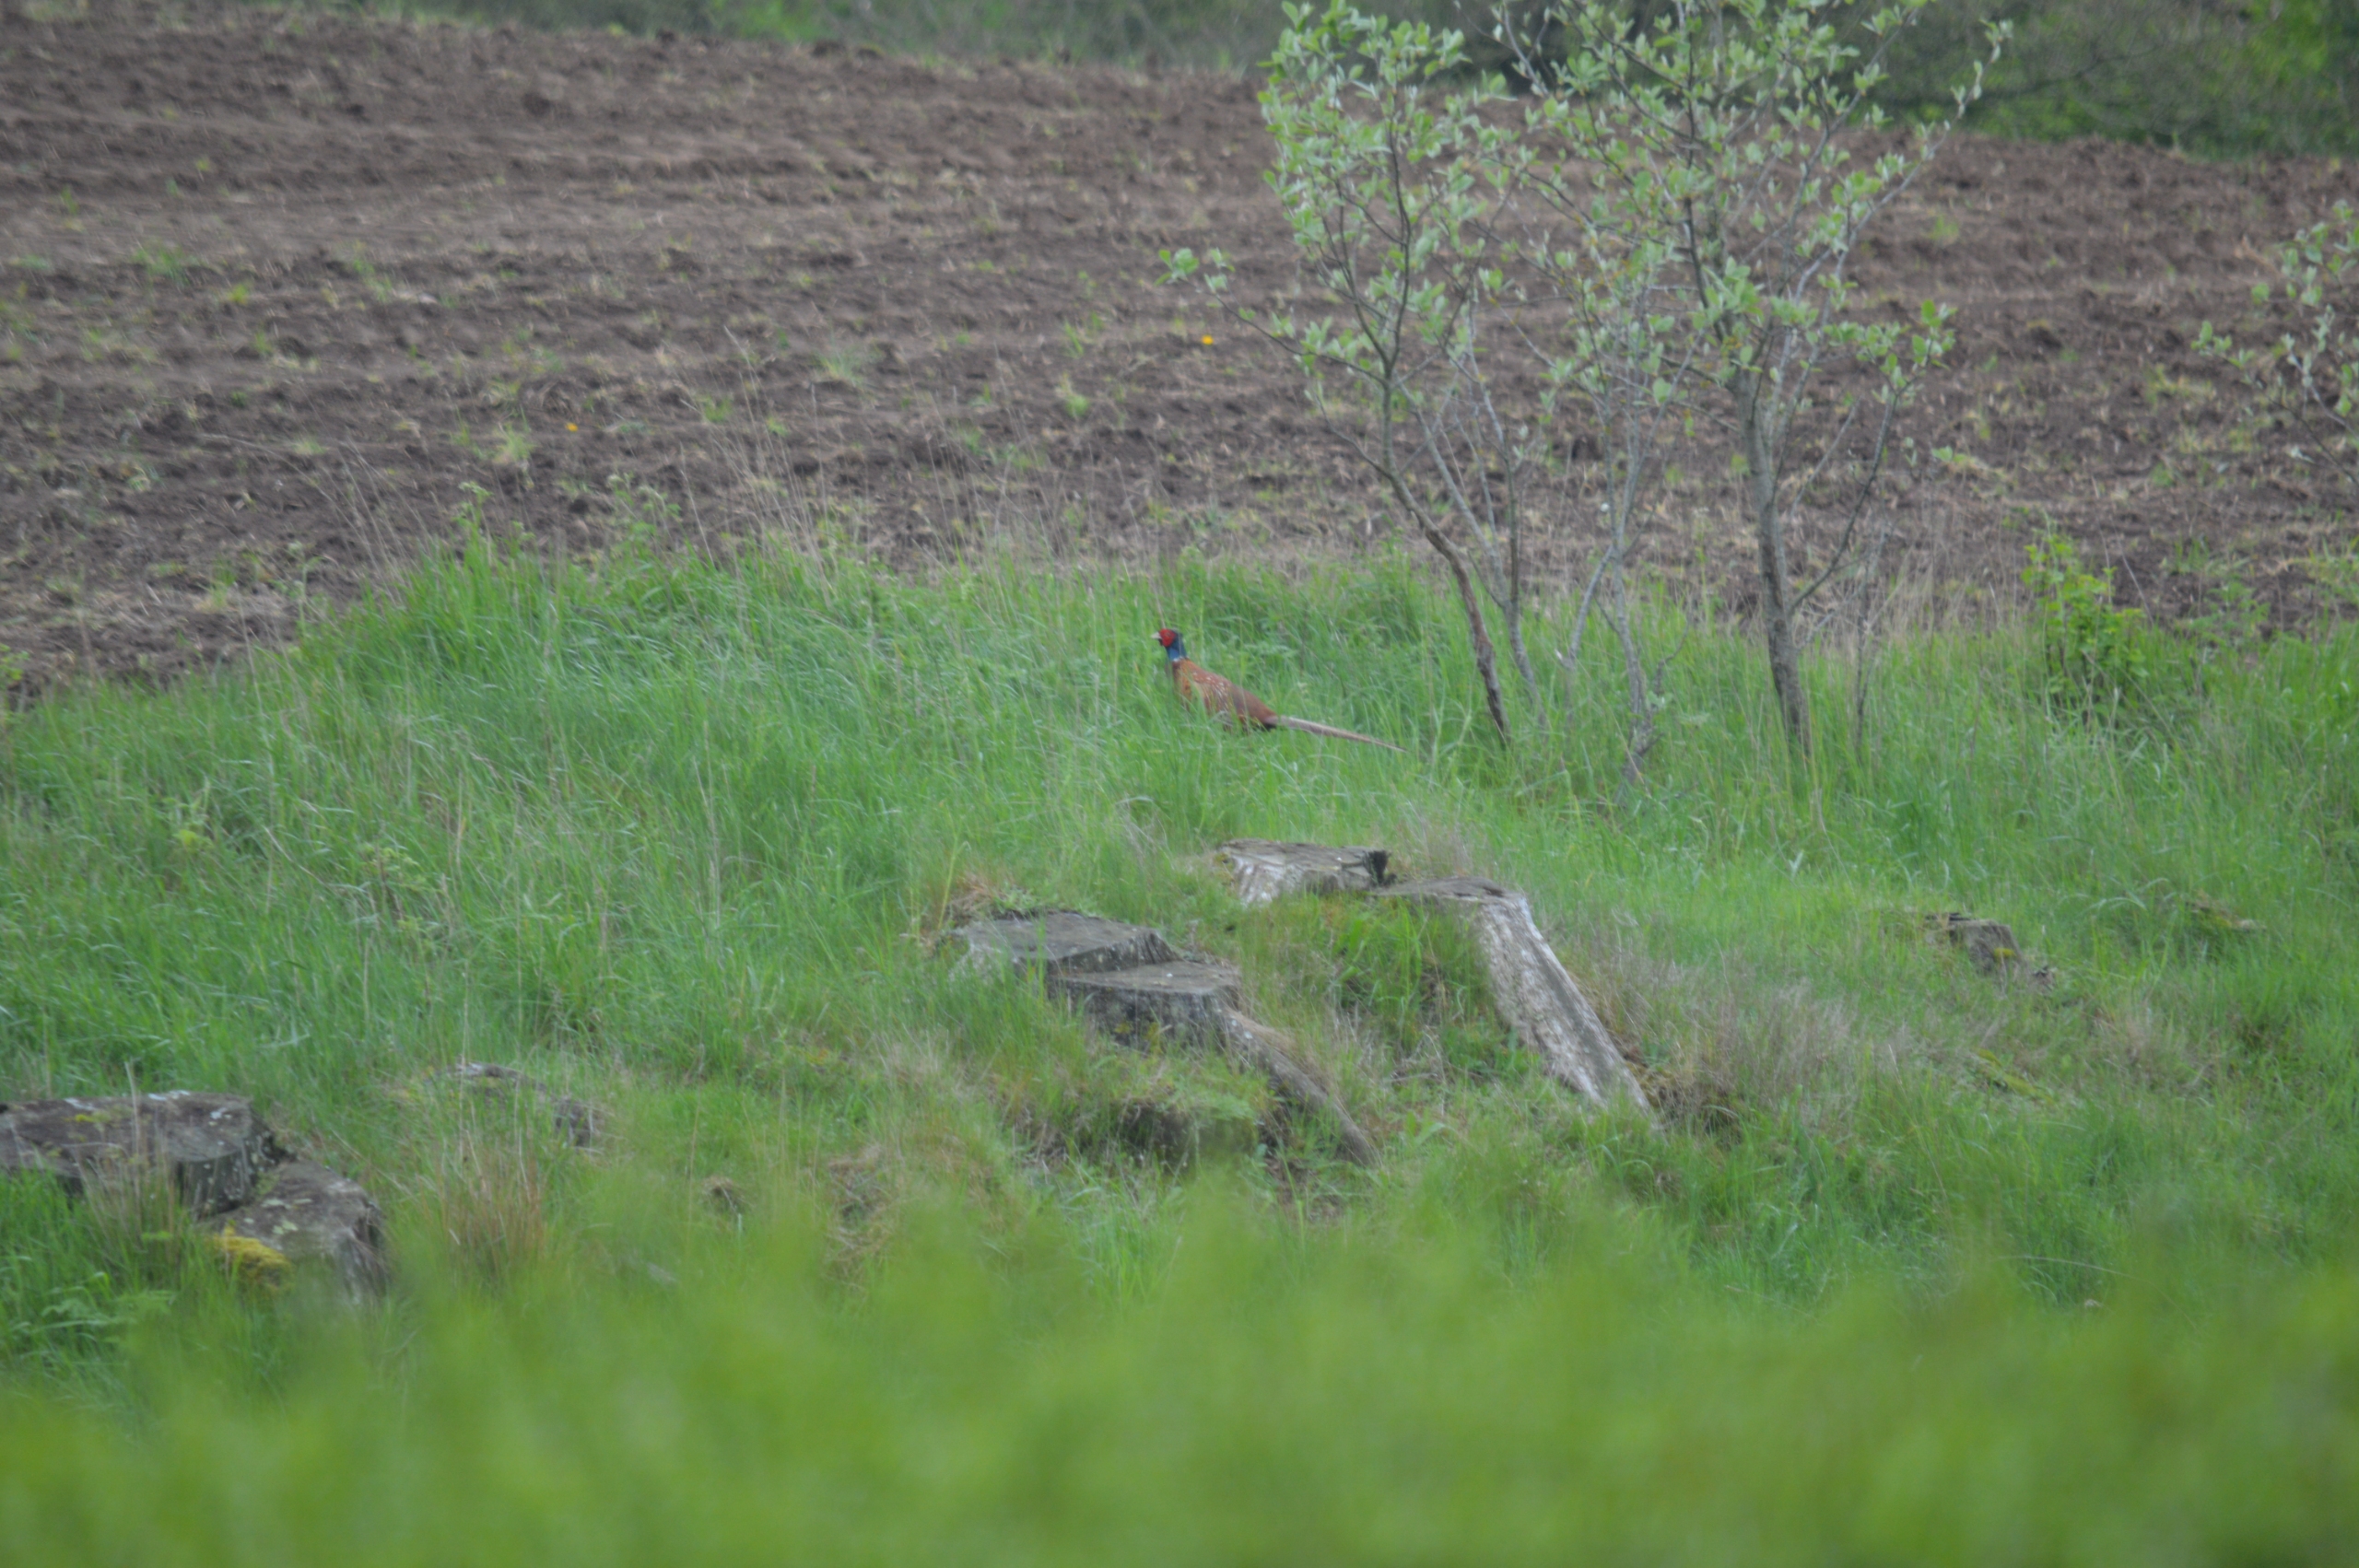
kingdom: Animalia
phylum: Chordata
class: Aves
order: Galliformes
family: Phasianidae
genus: Phasianus
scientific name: Phasianus colchicus
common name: Fasan
